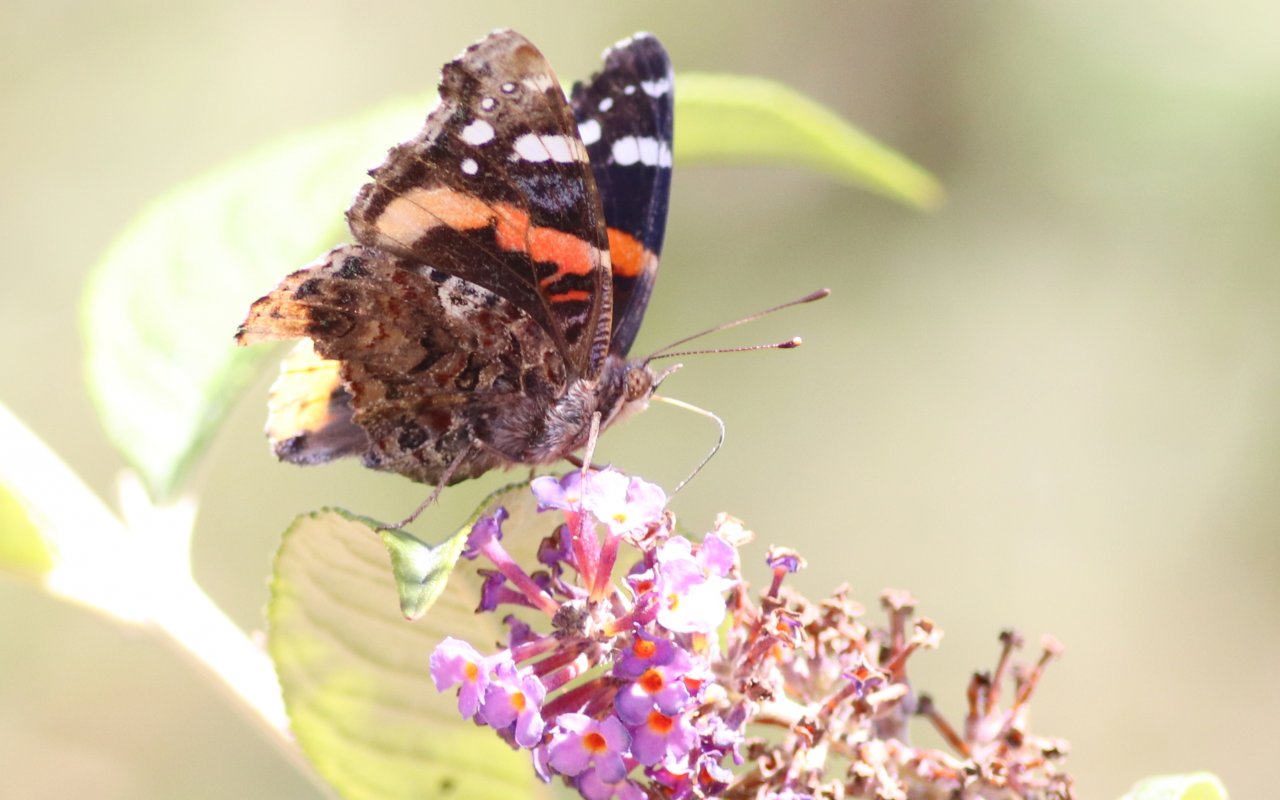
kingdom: Animalia
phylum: Arthropoda
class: Insecta
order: Lepidoptera
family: Nymphalidae
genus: Vanessa
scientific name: Vanessa atalanta
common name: Red Admiral
